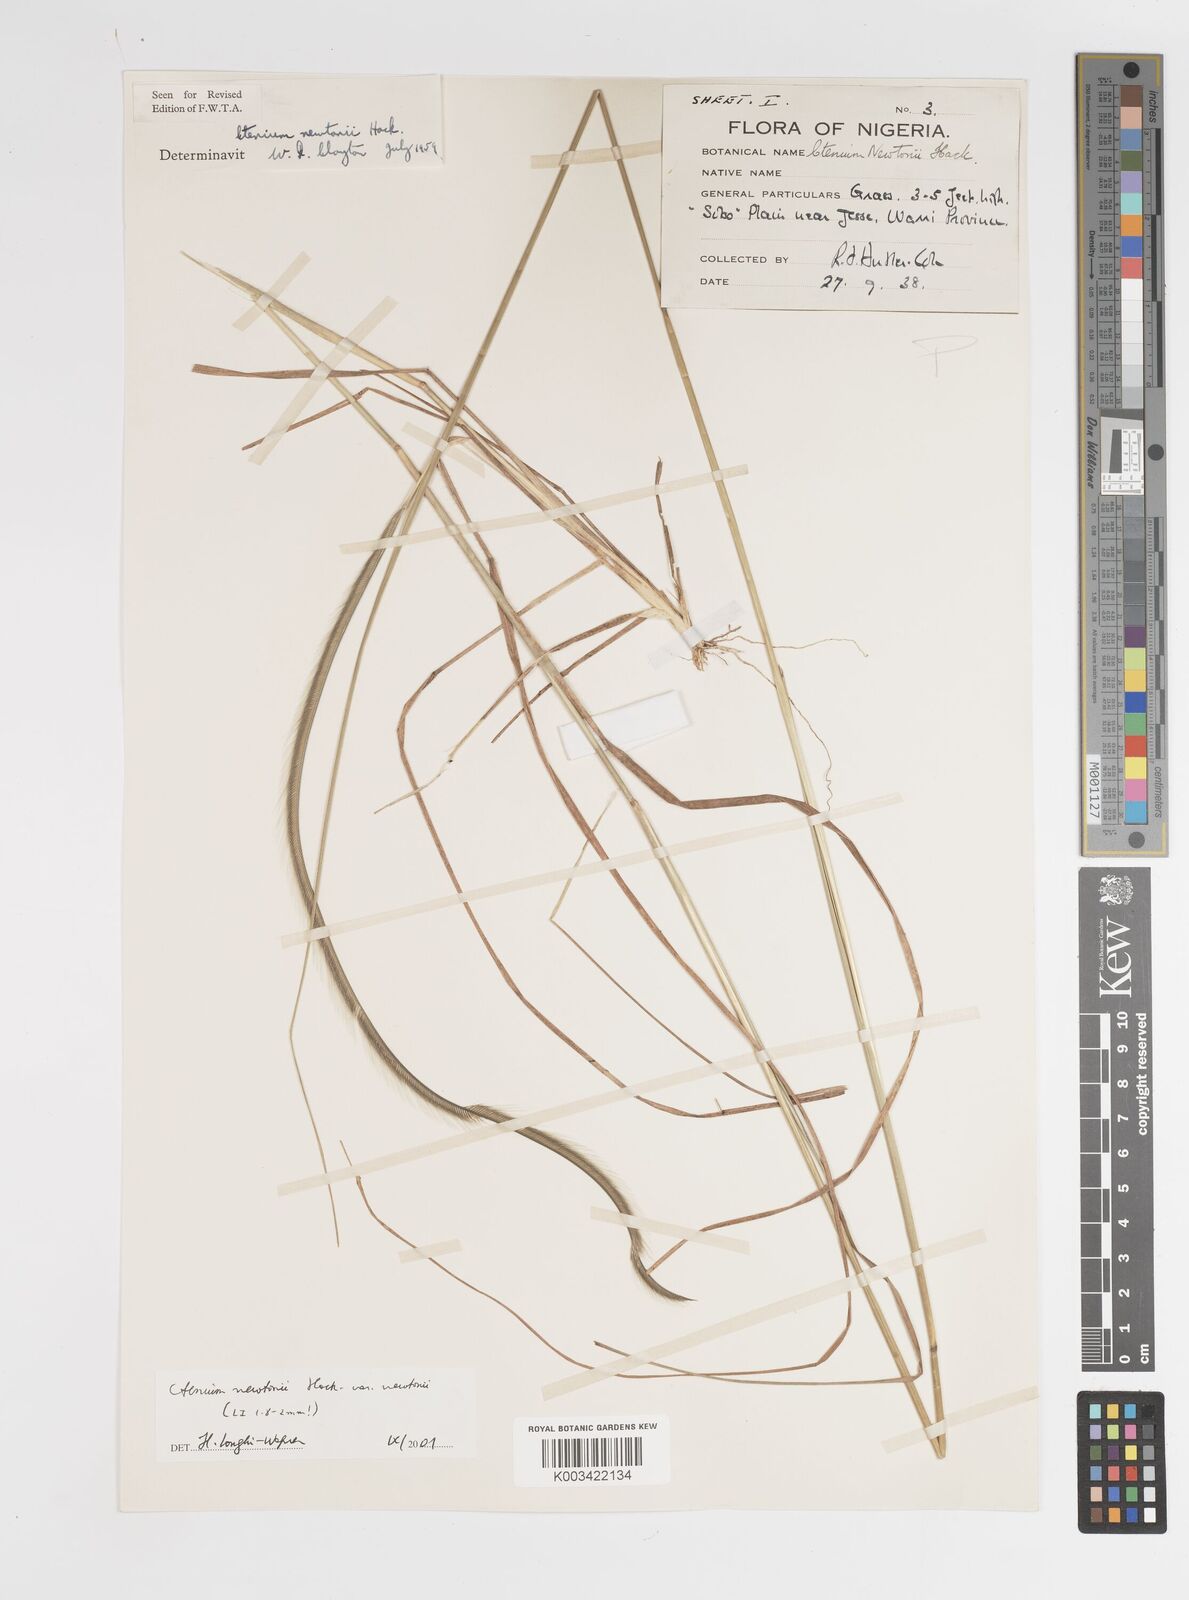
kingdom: Plantae
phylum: Tracheophyta
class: Liliopsida
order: Poales
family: Poaceae
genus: Ctenium
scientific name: Ctenium newtonii
